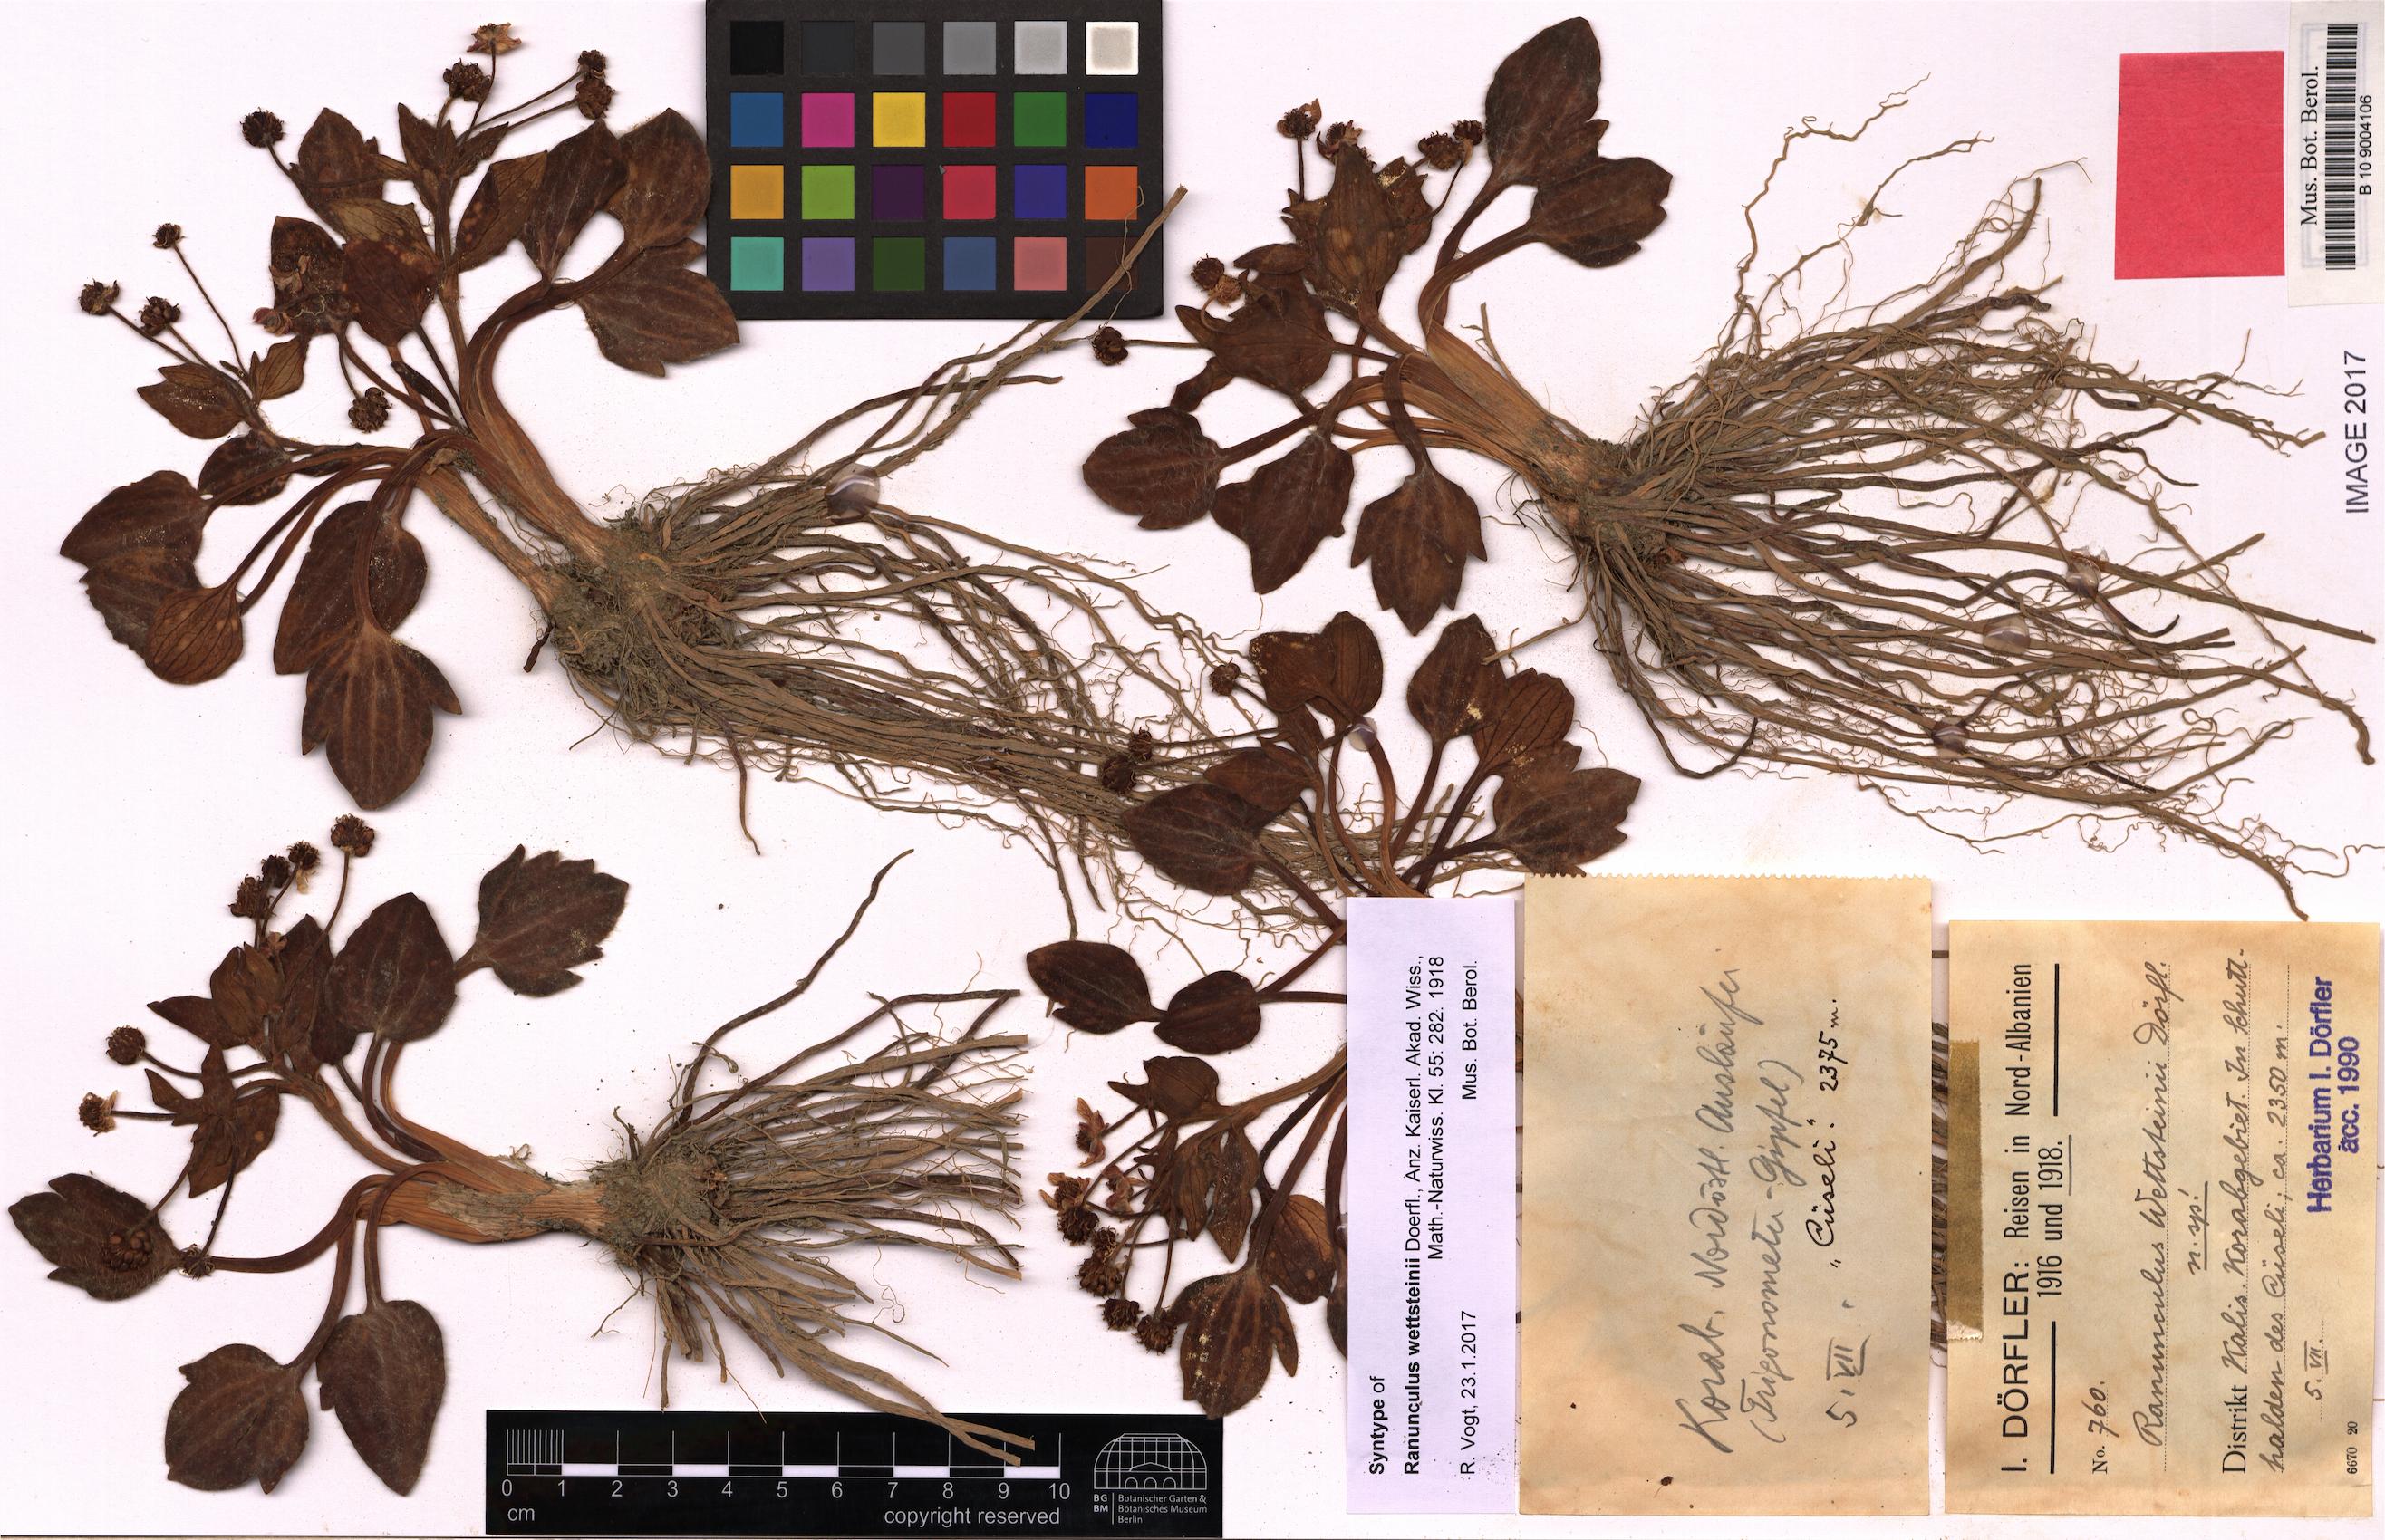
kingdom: Plantae
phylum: Tracheophyta
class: Magnoliopsida
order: Ranunculales
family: Ranunculaceae
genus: Ranunculus
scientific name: Ranunculus wettsteinii
